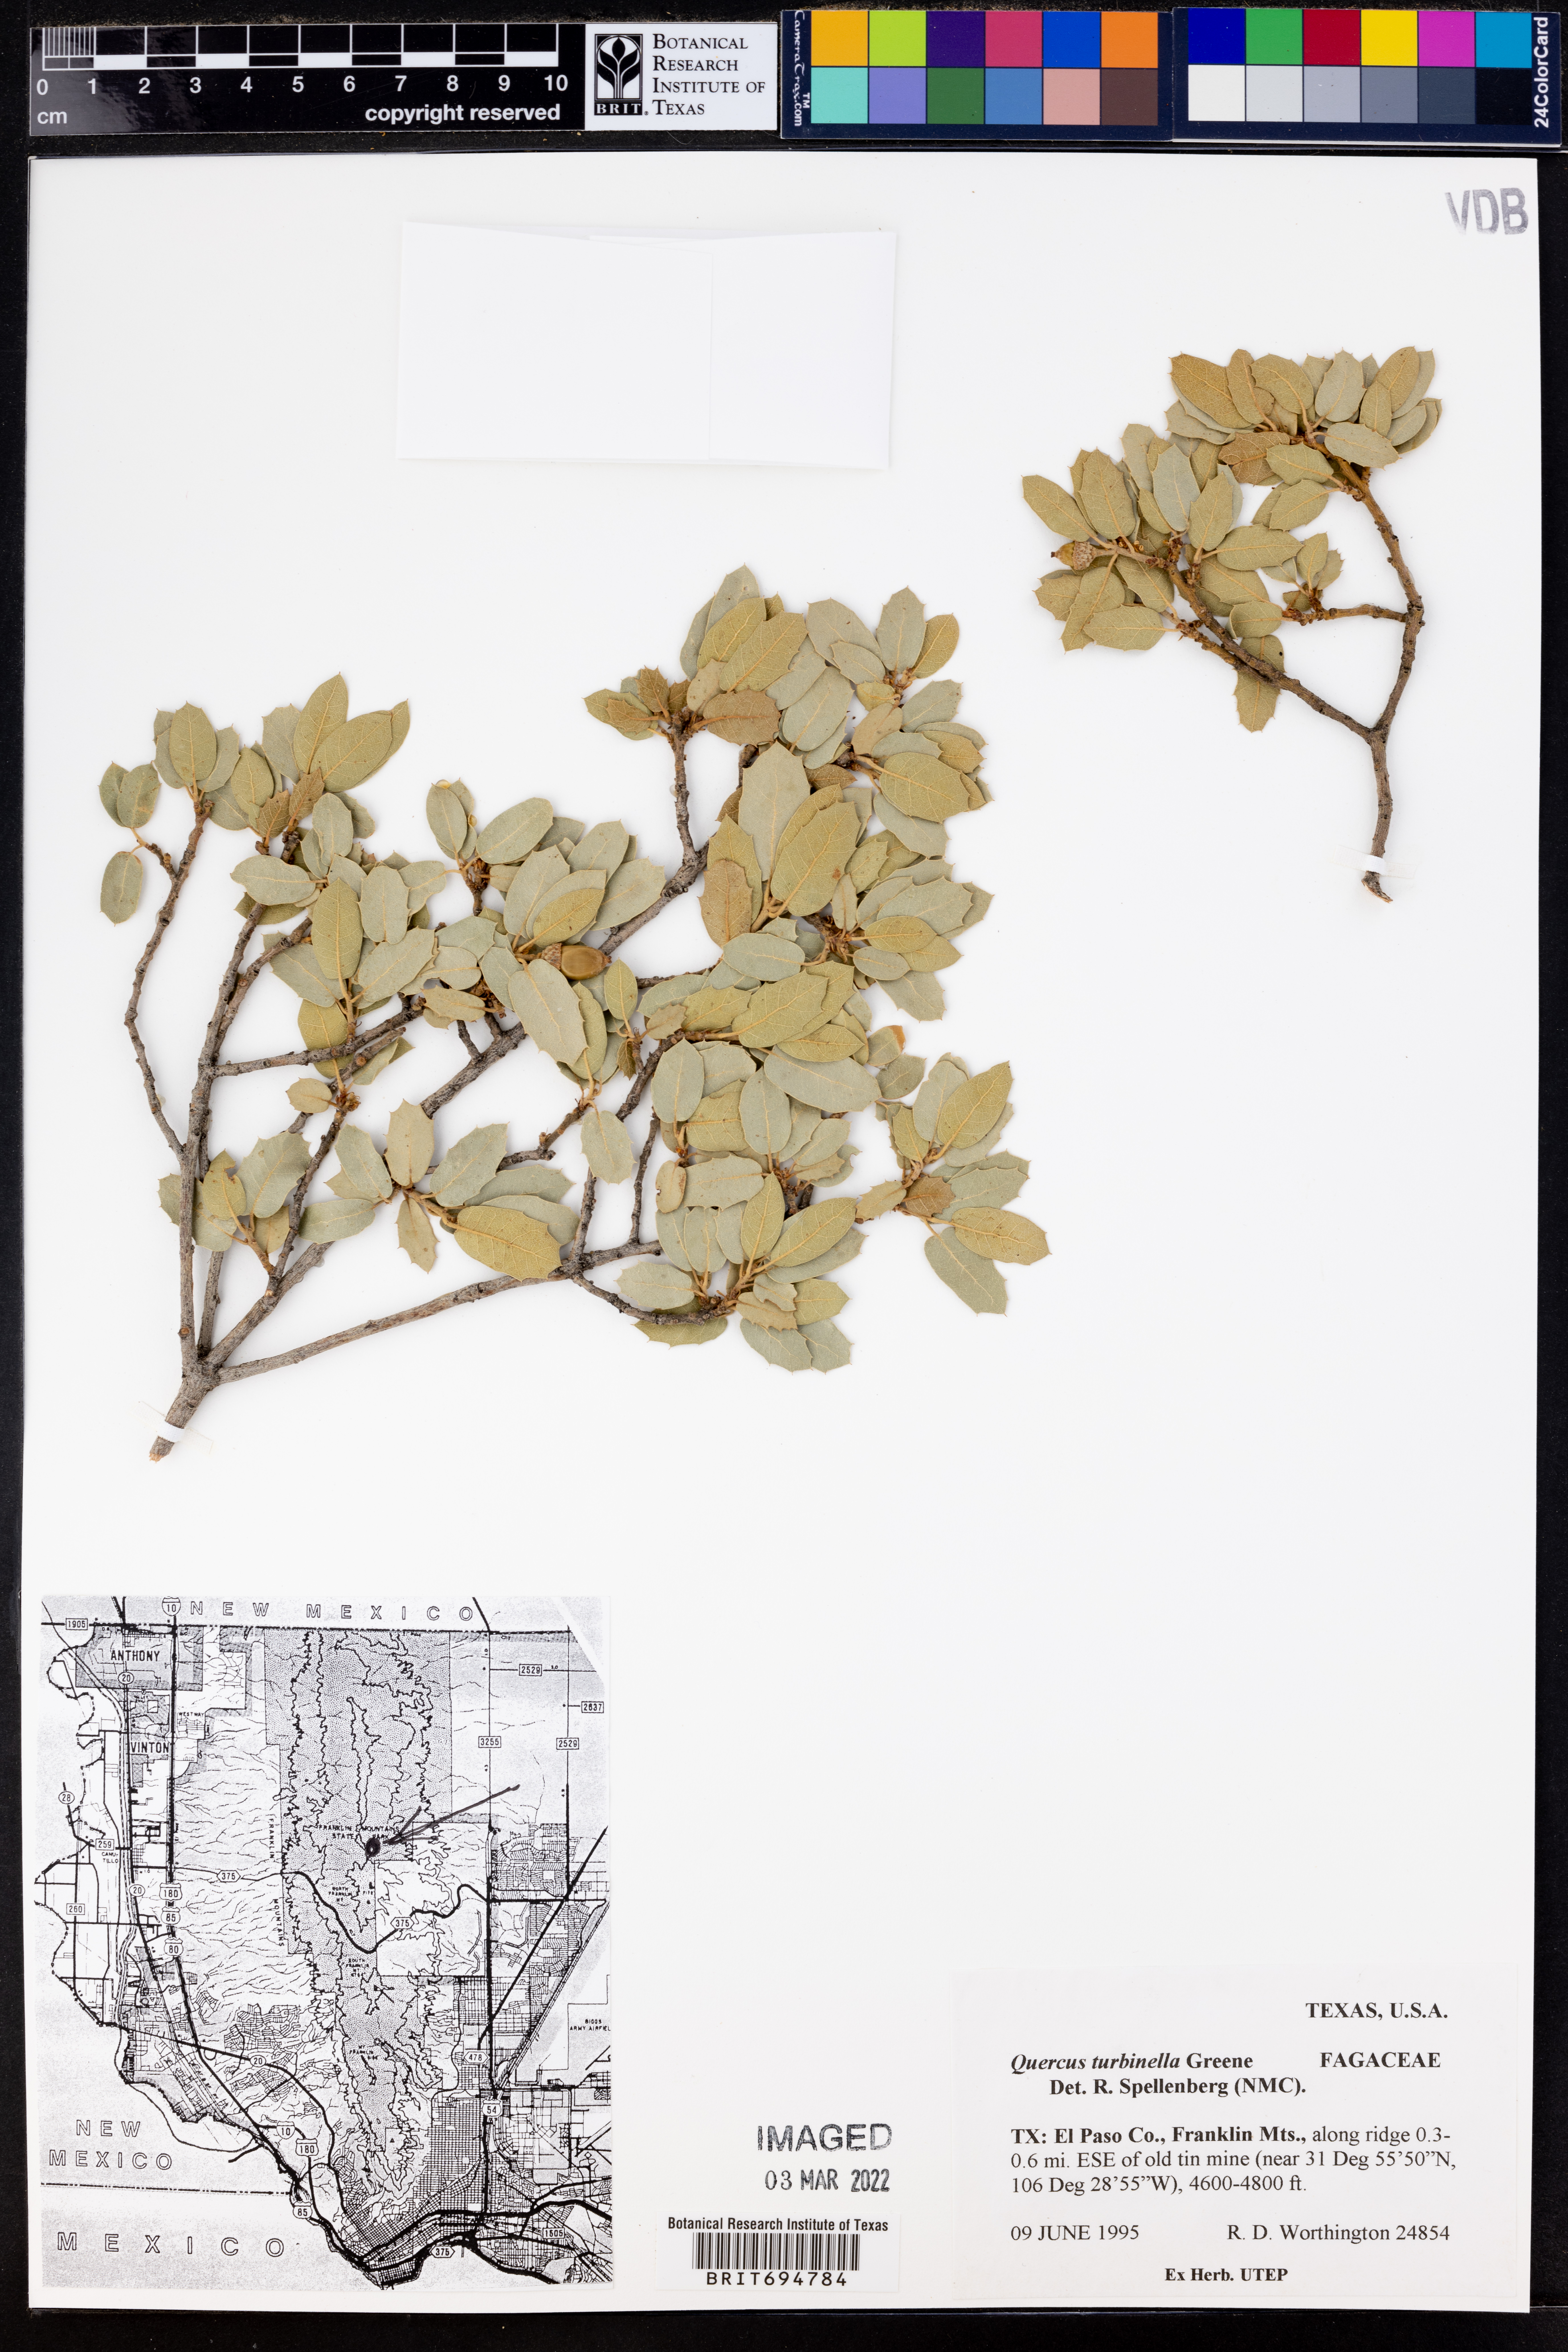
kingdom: Plantae
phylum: Tracheophyta
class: Magnoliopsida
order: Fagales
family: Fagaceae
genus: Quercus
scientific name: Quercus turbinella
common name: Sonoran scrub oak
